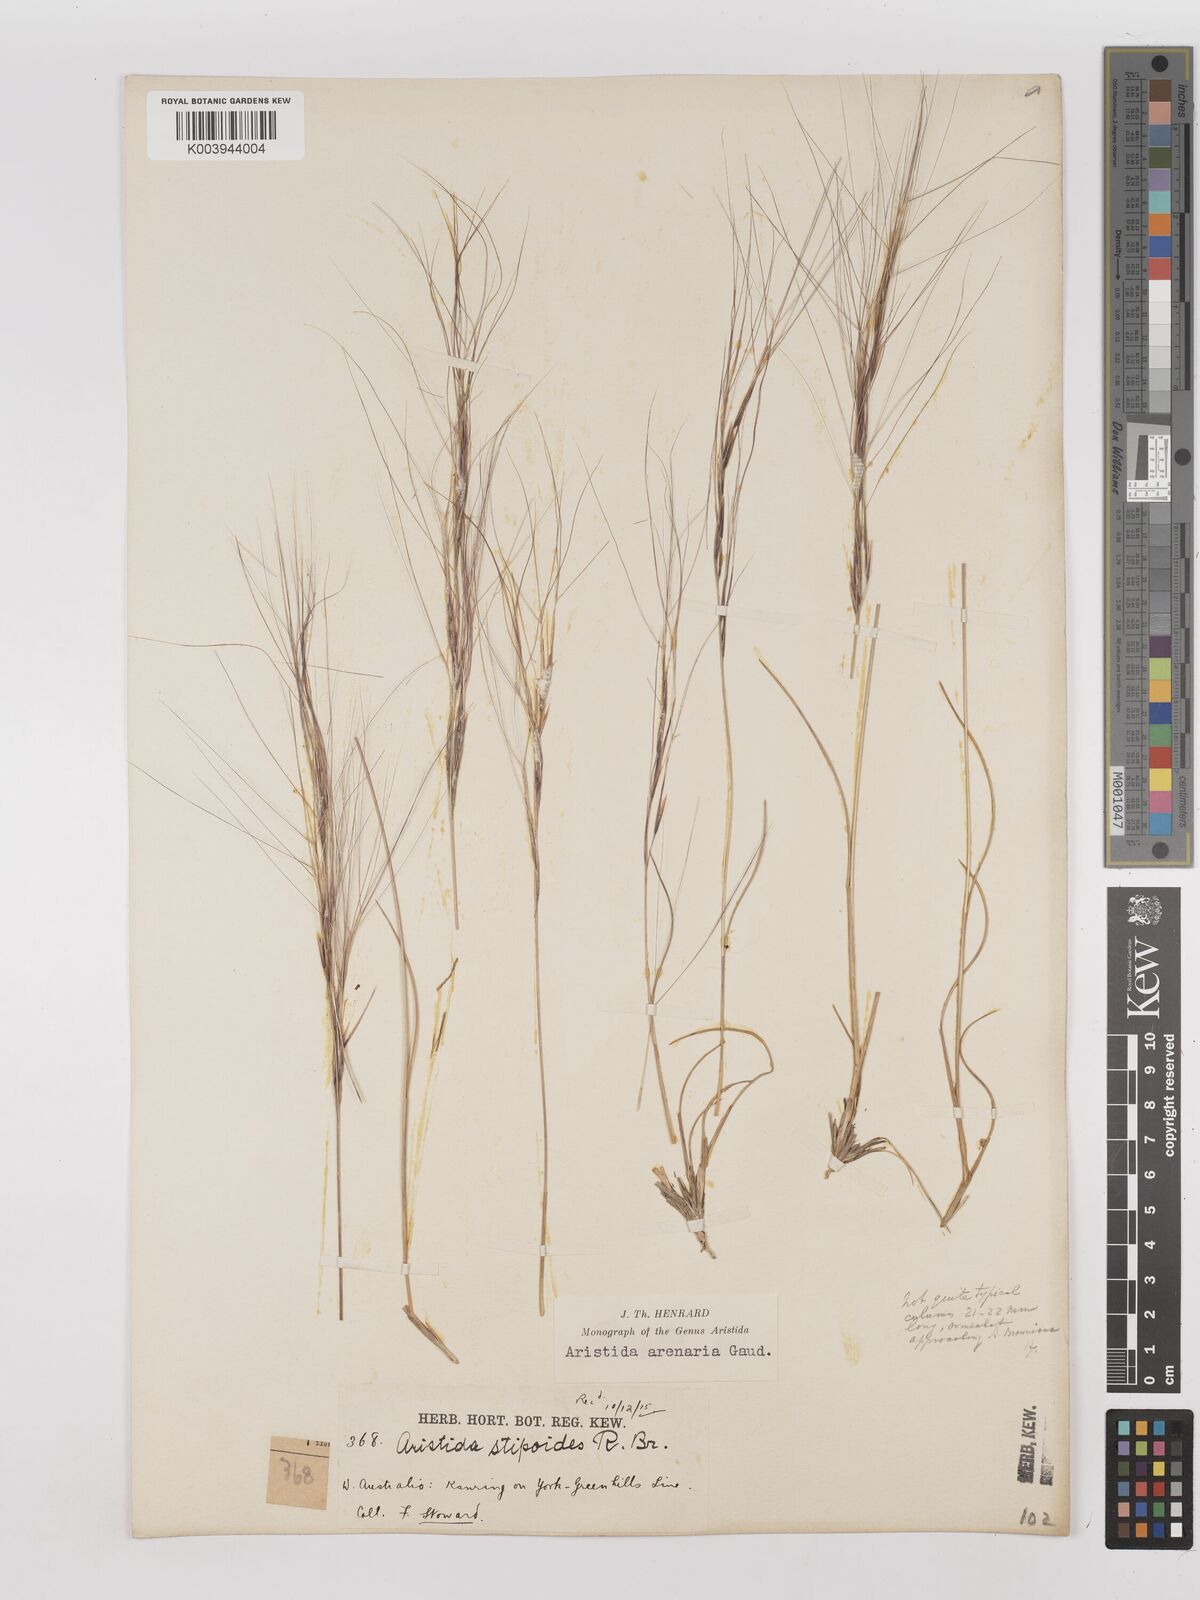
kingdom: Plantae
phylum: Tracheophyta
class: Liliopsida
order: Poales
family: Poaceae
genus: Aristida
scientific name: Aristida contorta
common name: Bunch kerosene grass
